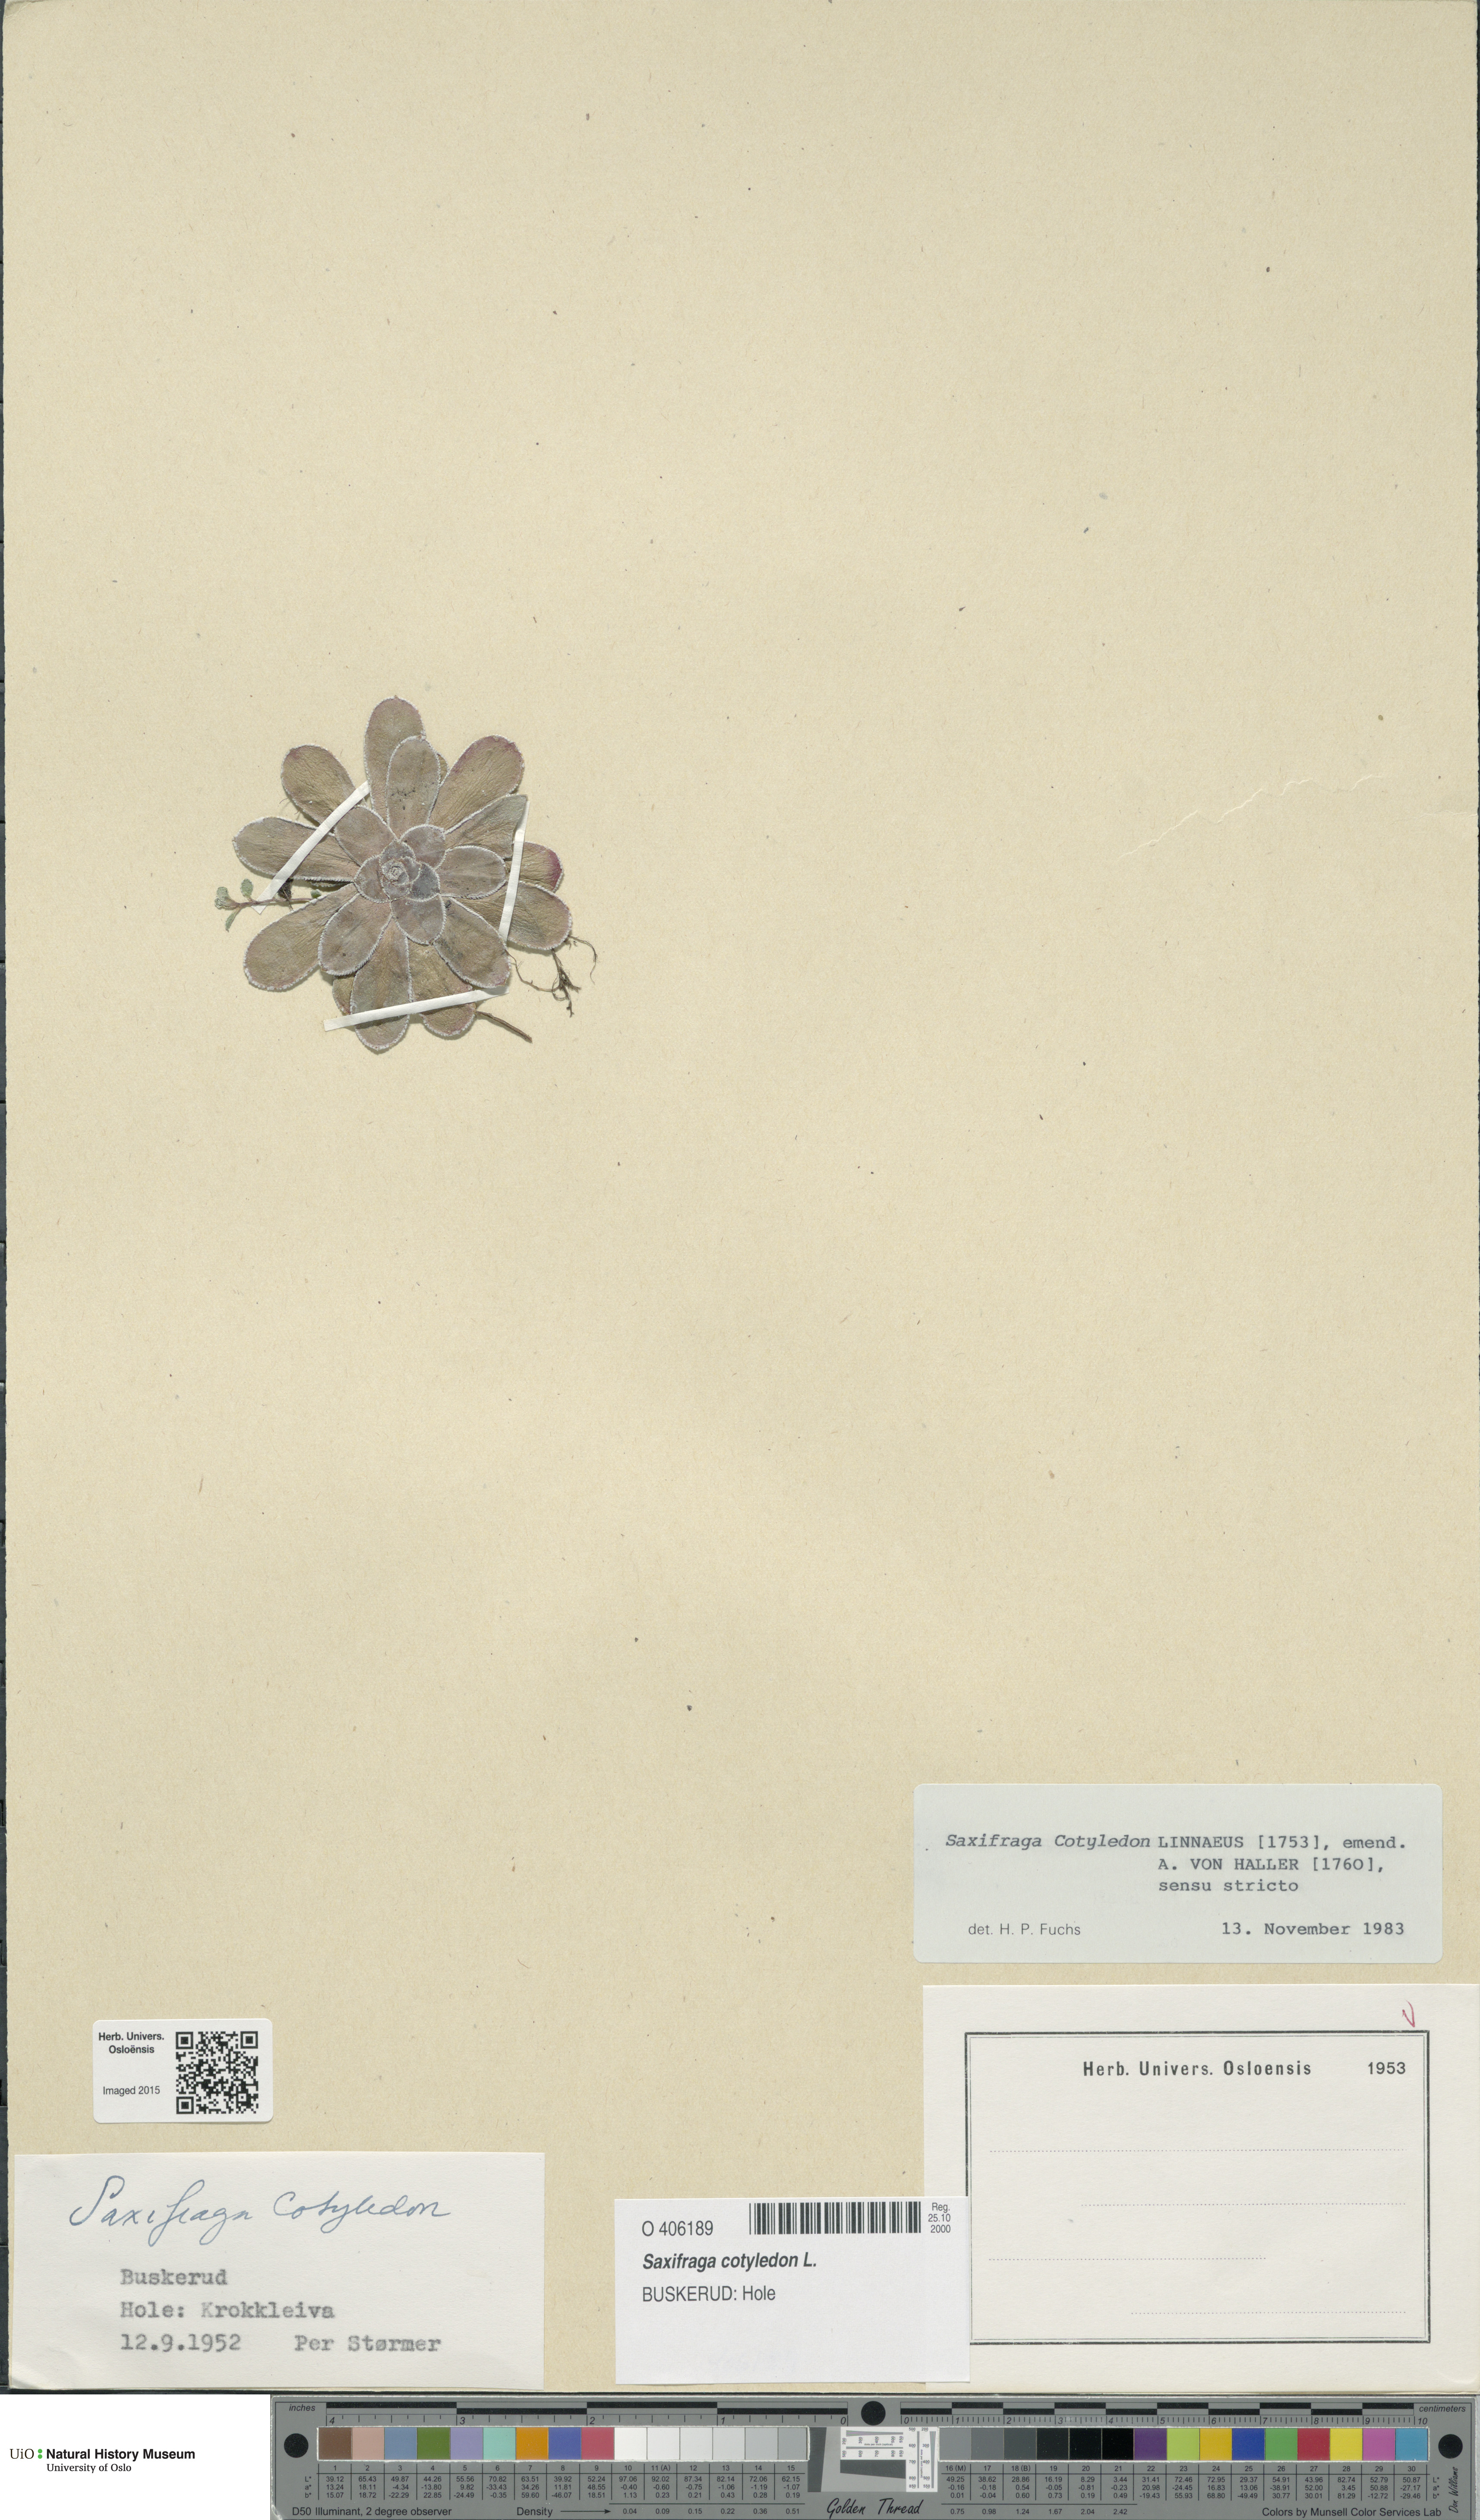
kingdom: Plantae
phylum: Tracheophyta
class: Magnoliopsida
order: Saxifragales
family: Saxifragaceae
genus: Saxifraga
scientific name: Saxifraga cotyledon
